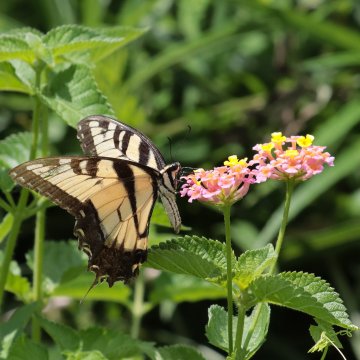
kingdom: Animalia
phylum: Arthropoda
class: Insecta
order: Lepidoptera
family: Papilionidae
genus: Pterourus
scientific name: Pterourus glaucus
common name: Eastern Tiger Swallowtail
